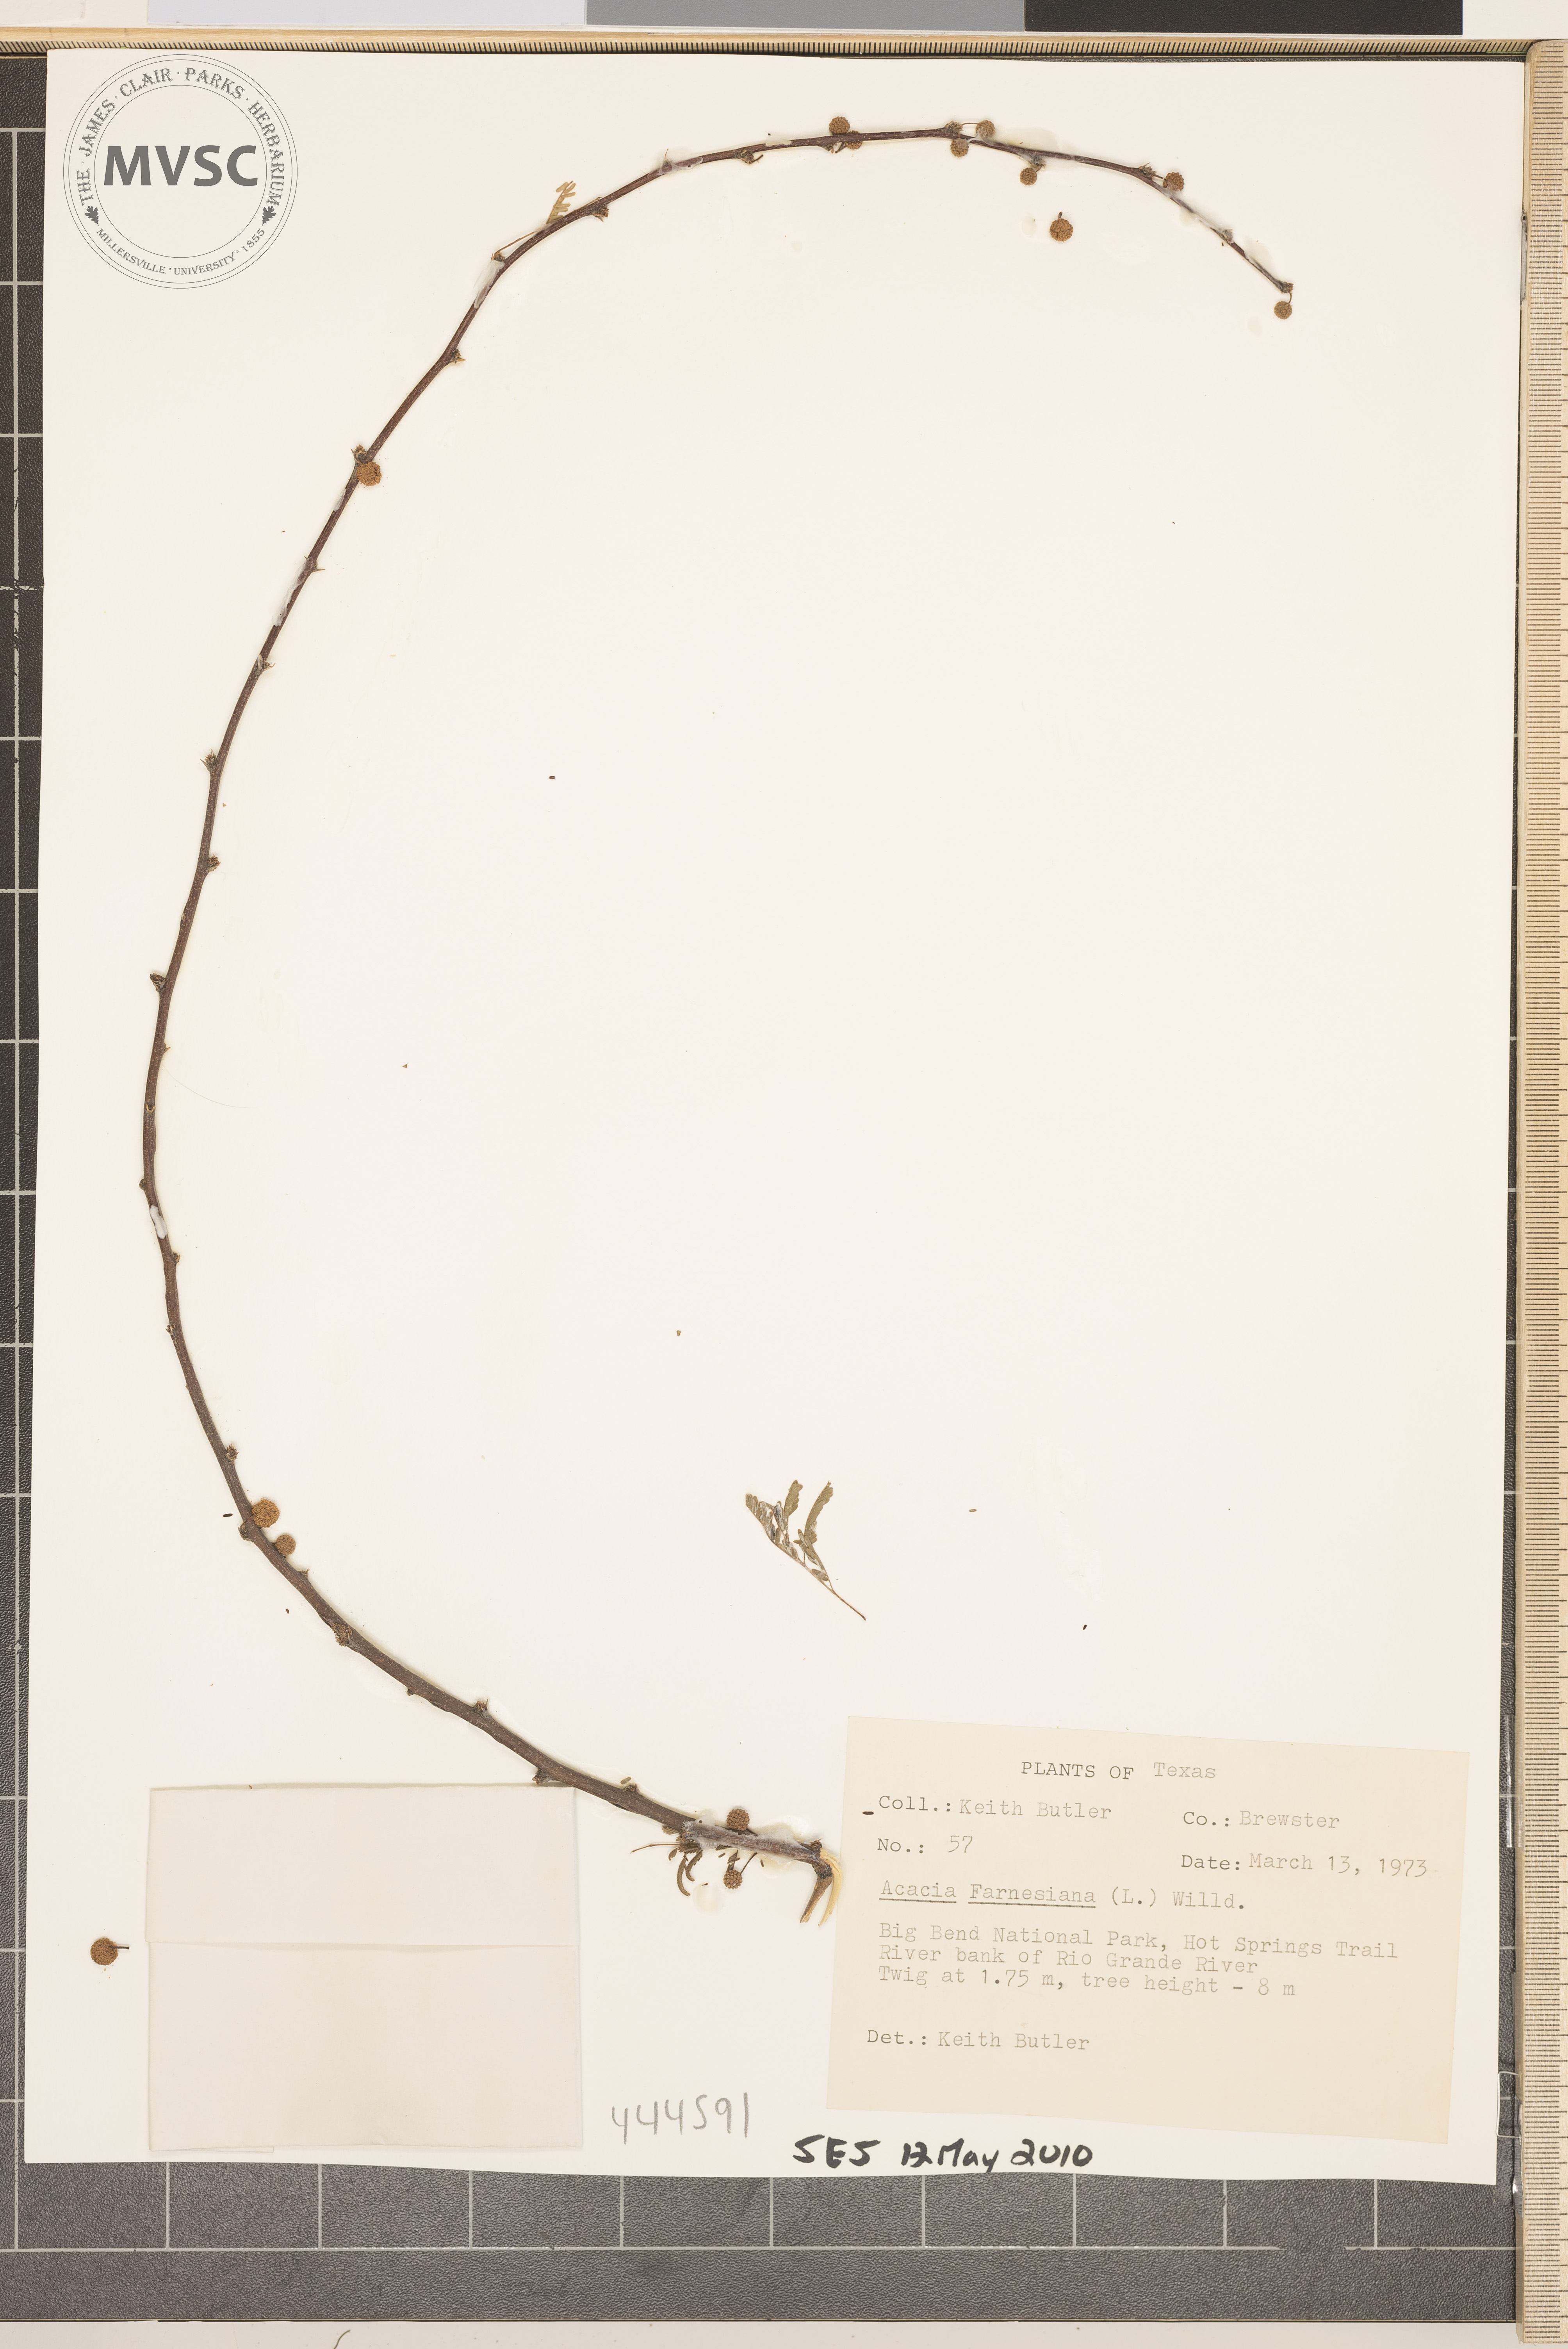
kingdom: Plantae
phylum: Tracheophyta
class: Magnoliopsida
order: Fabales
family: Fabaceae
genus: Vachellia
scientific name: Vachellia farnesiana
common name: Sweet acacia
